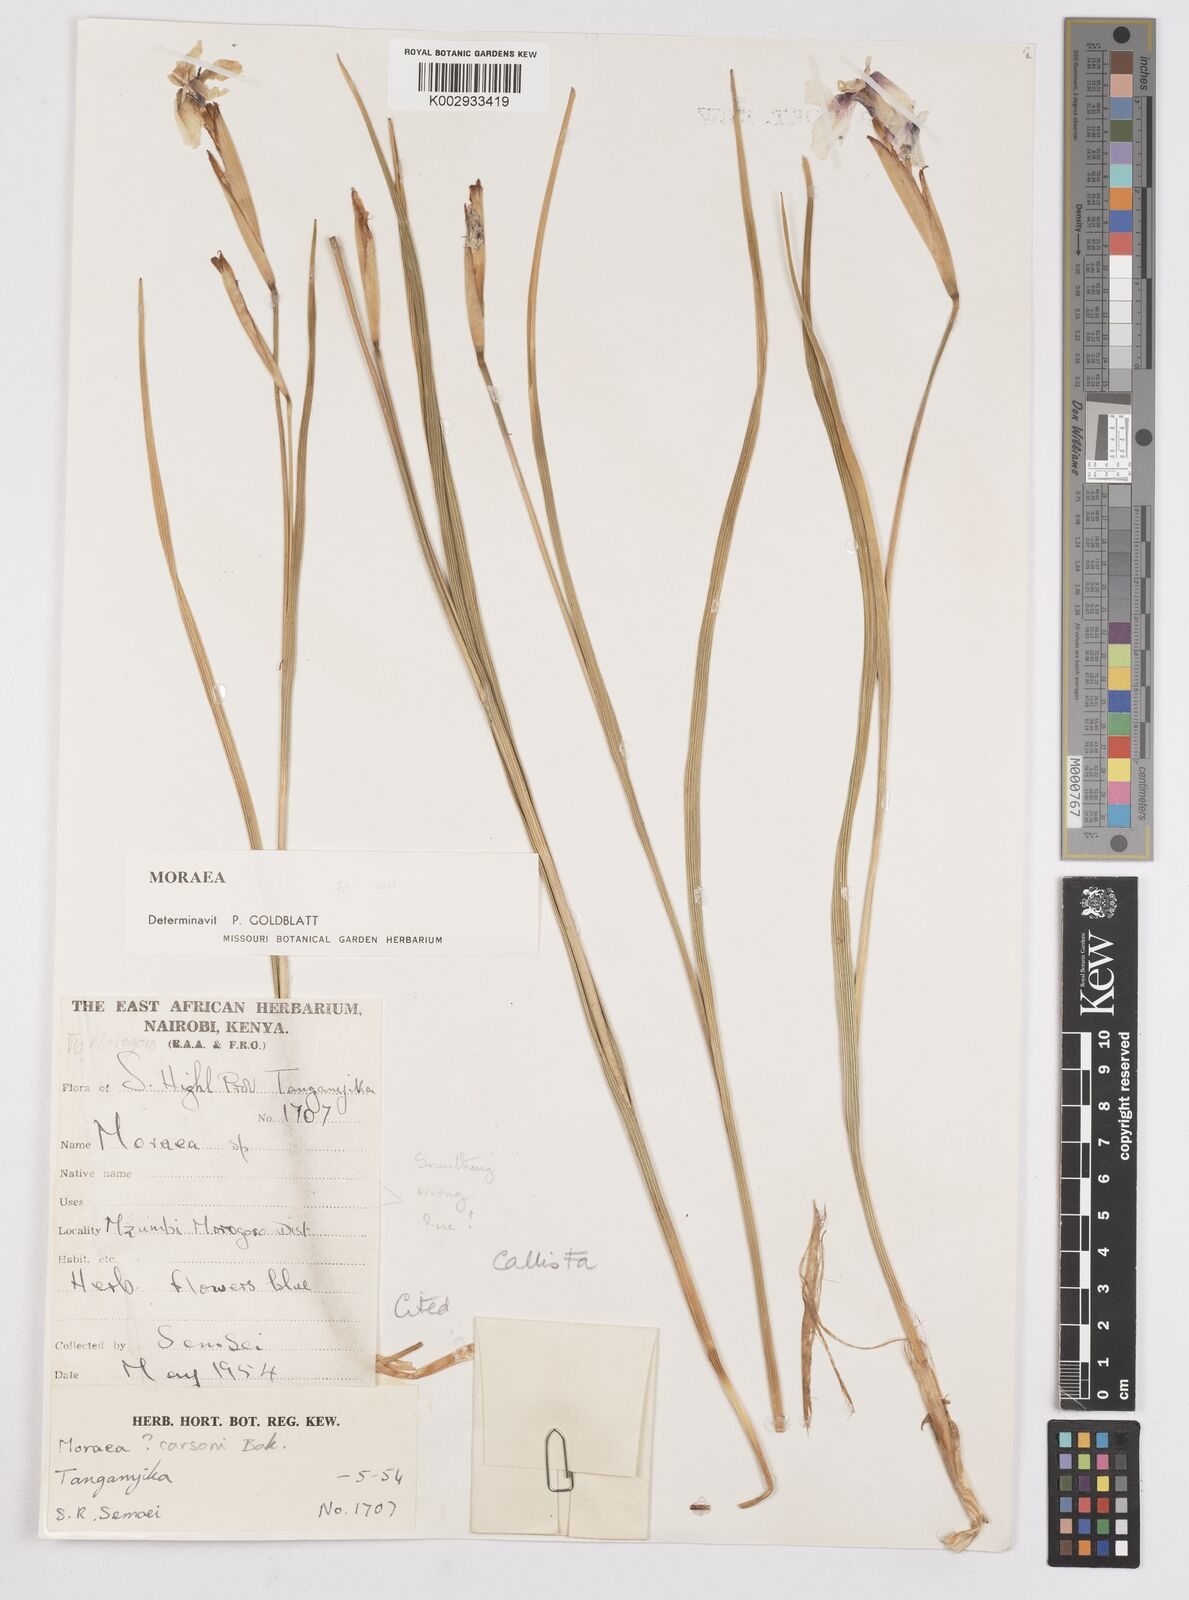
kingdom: Plantae
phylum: Tracheophyta
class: Liliopsida
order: Asparagales
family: Iridaceae
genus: Moraea
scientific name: Moraea callista
